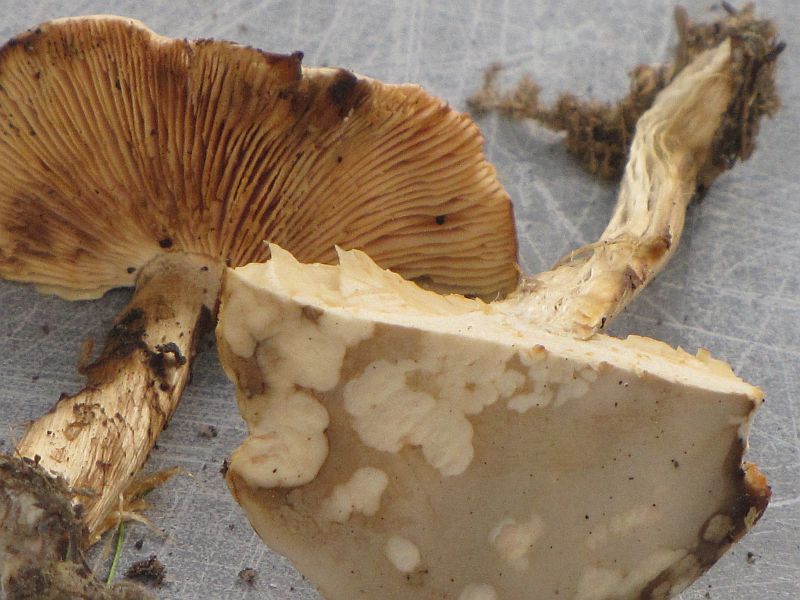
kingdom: Fungi
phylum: Basidiomycota
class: Agaricomycetes
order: Agaricales
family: Tricholomataceae
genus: Melanoleuca
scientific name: Melanoleuca cognata
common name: gyldengrå munkehat
